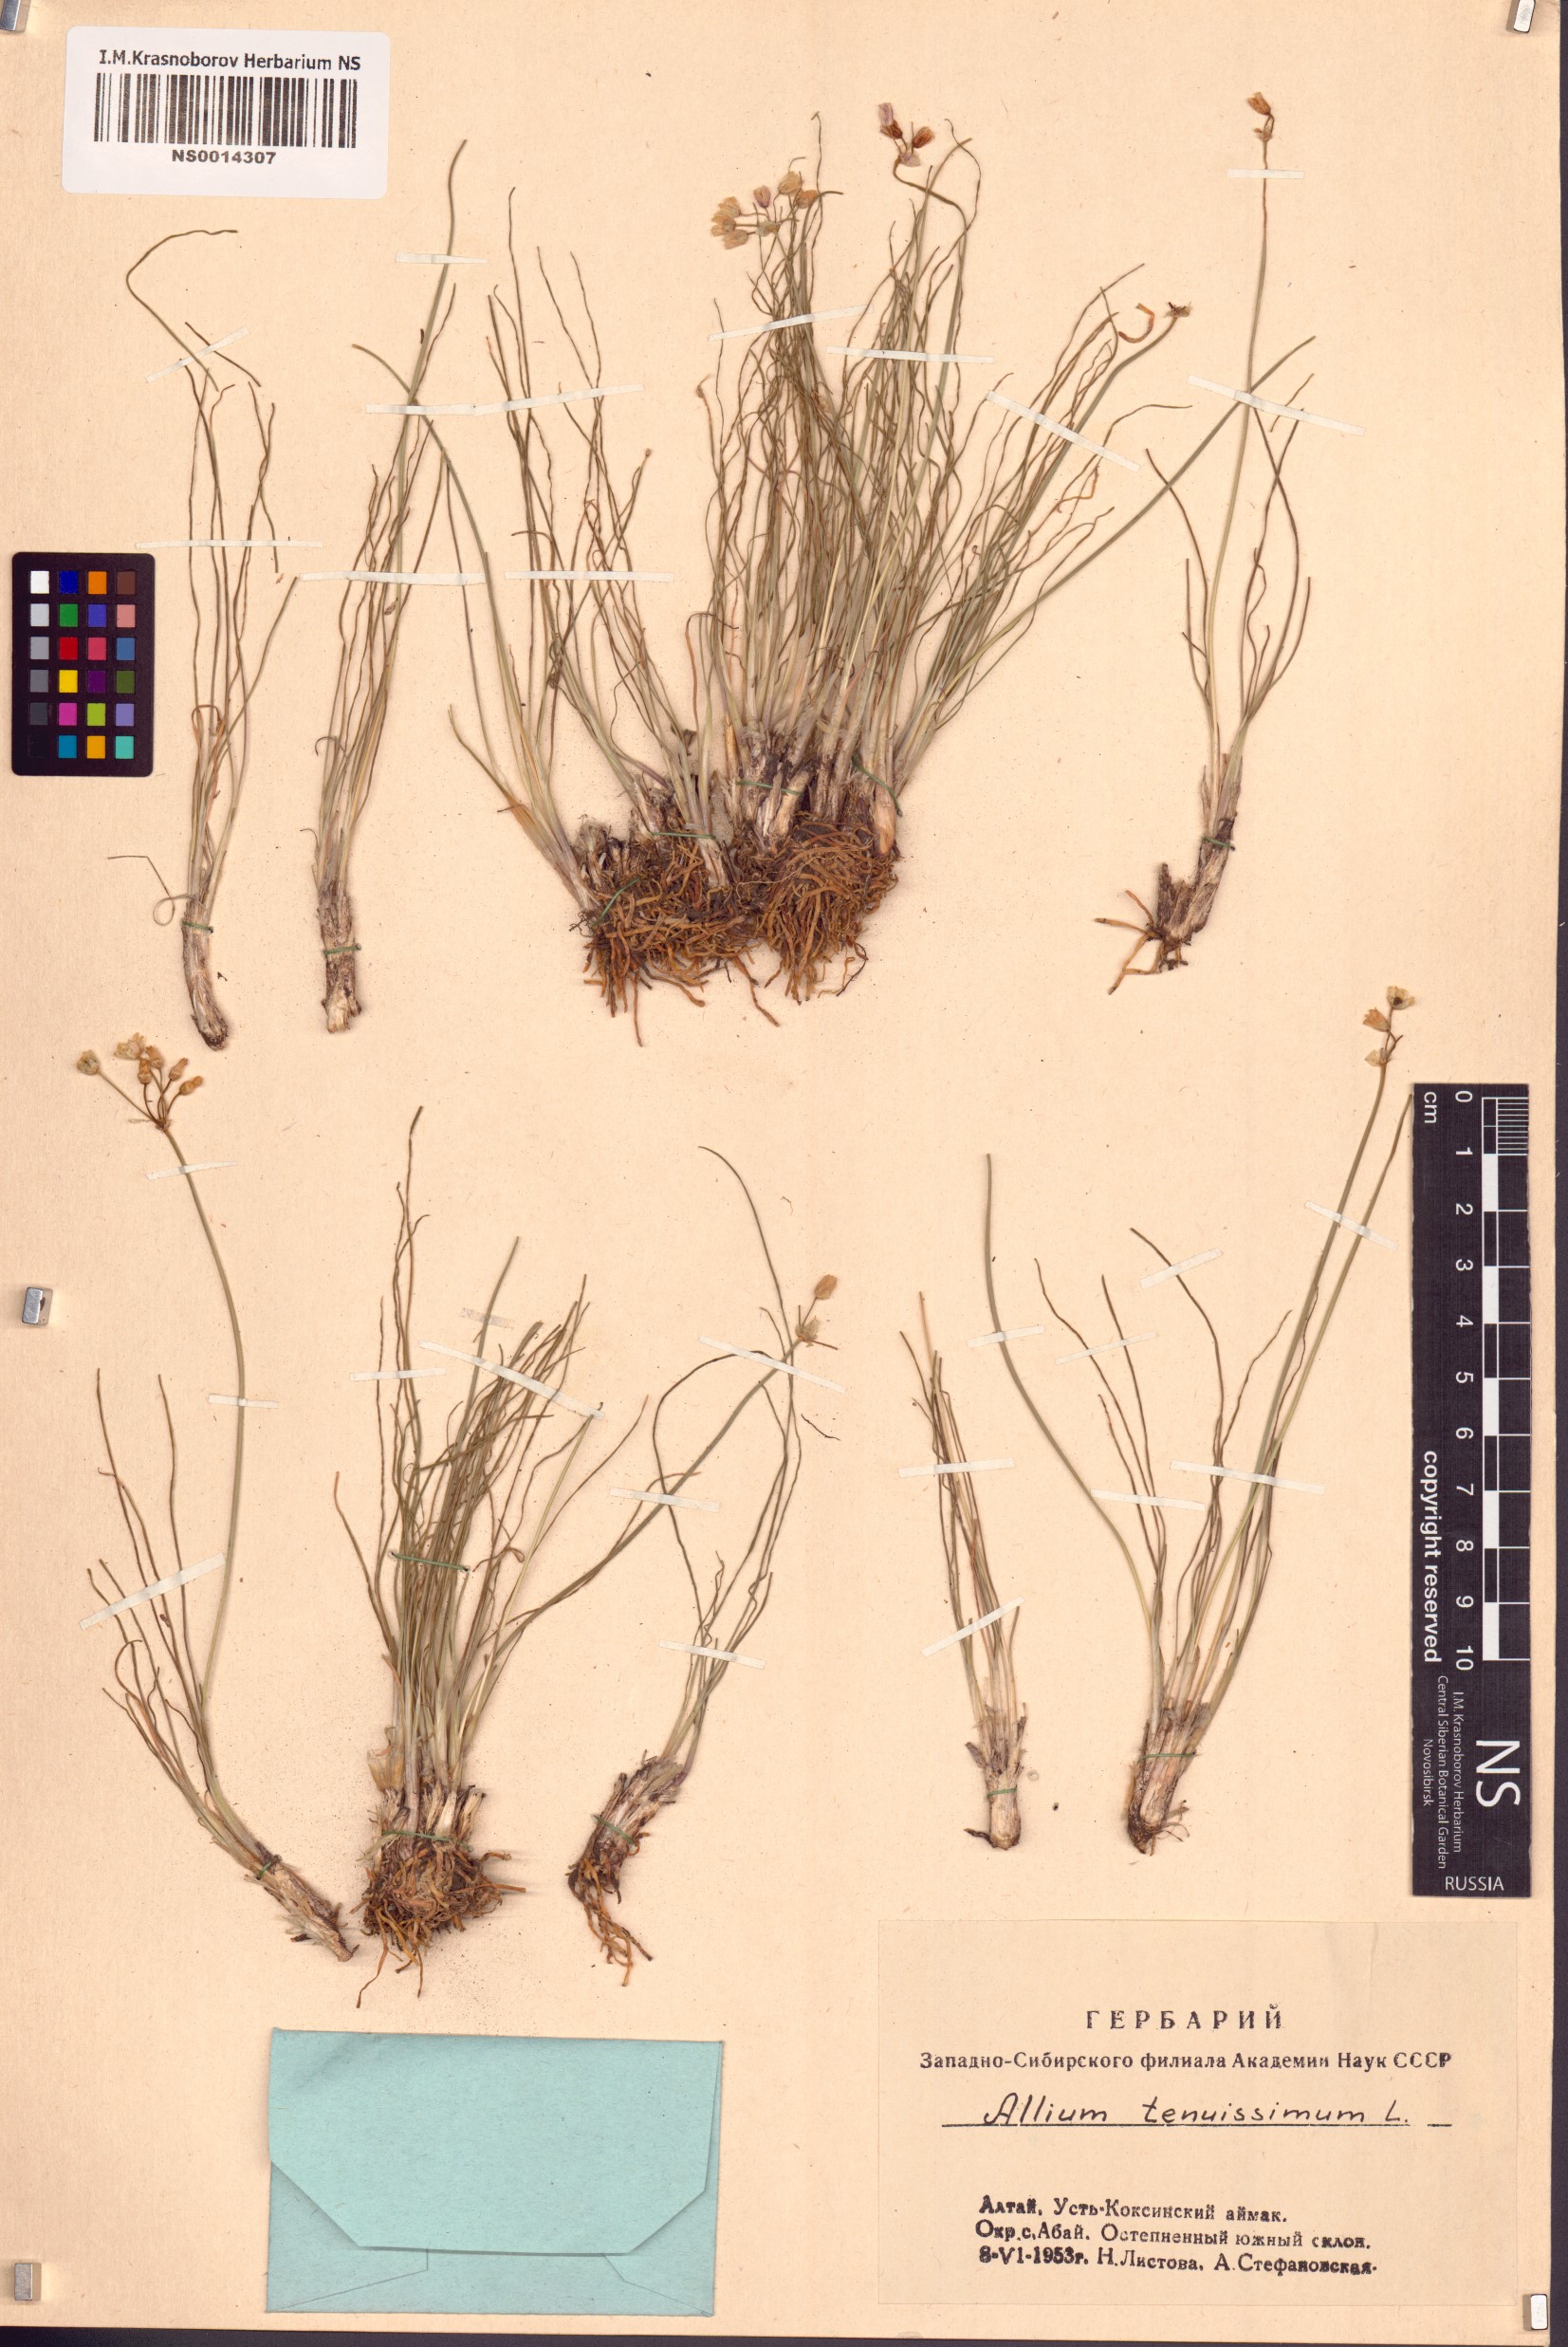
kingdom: Plantae
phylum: Tracheophyta
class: Liliopsida
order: Asparagales
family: Amaryllidaceae
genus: Allium
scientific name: Allium tenuissimum
